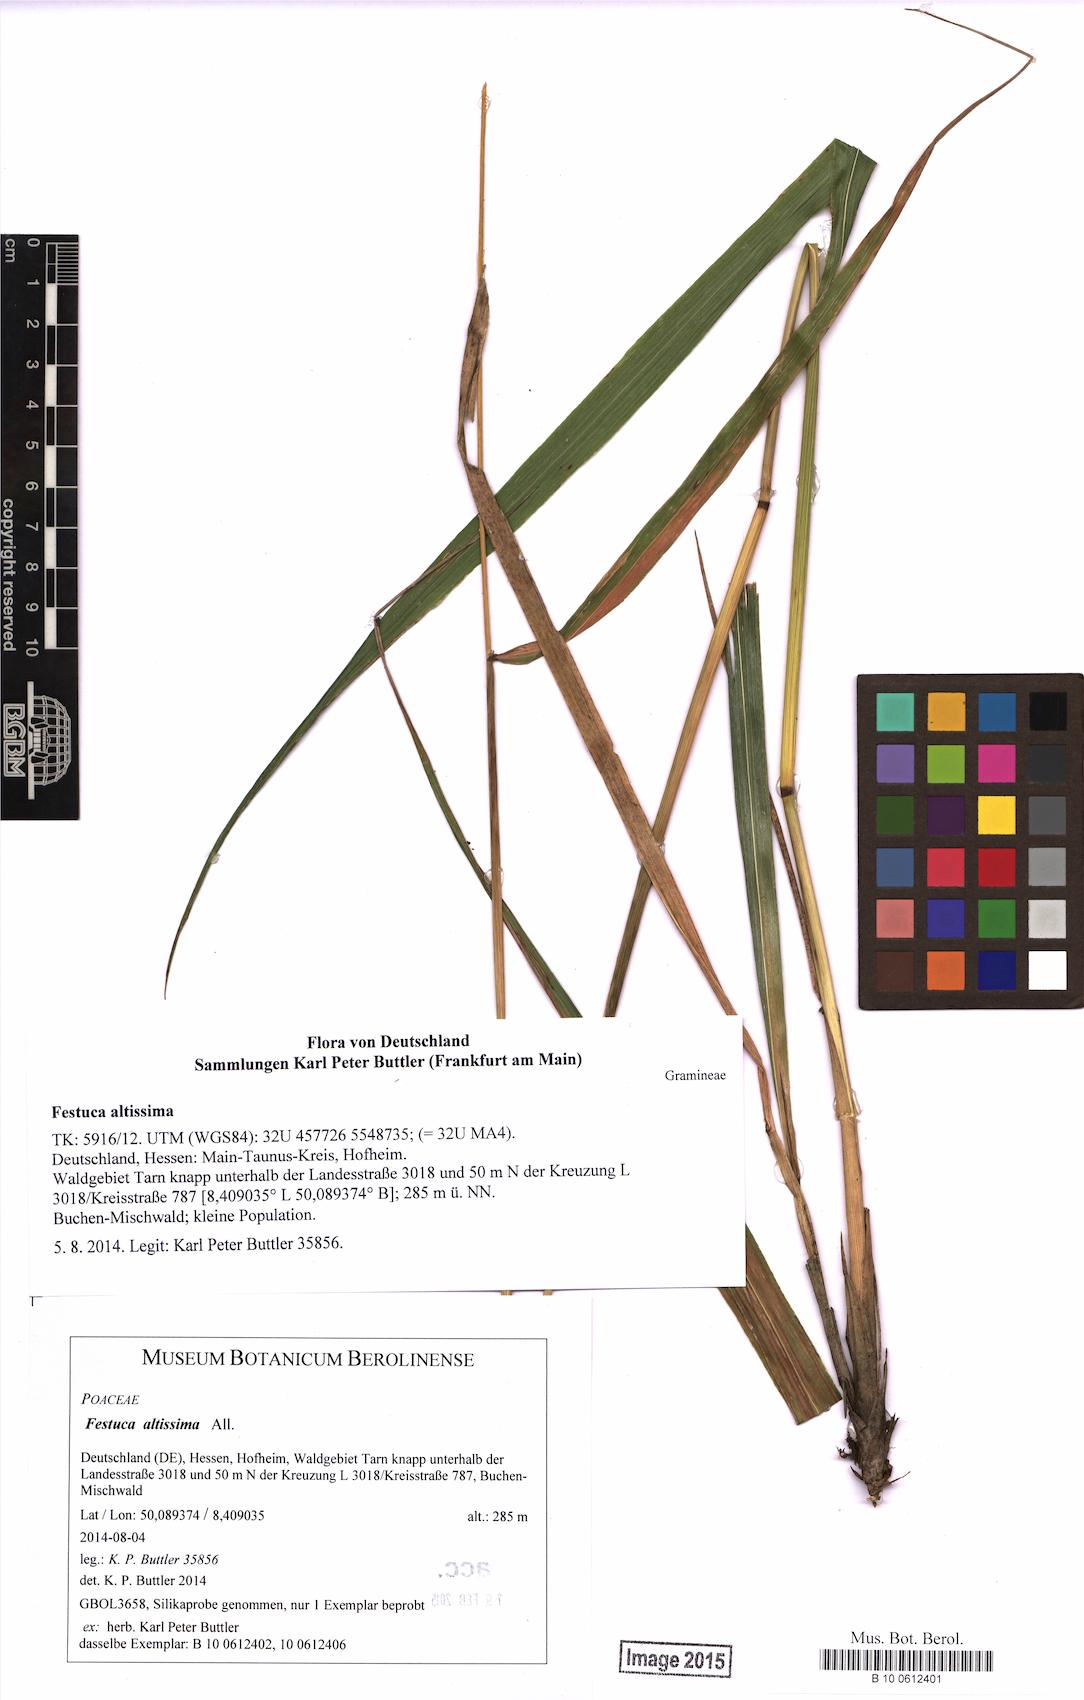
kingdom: Plantae
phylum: Tracheophyta
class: Liliopsida
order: Poales
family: Poaceae
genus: Festuca
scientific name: Festuca altissima
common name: Wood fescue
